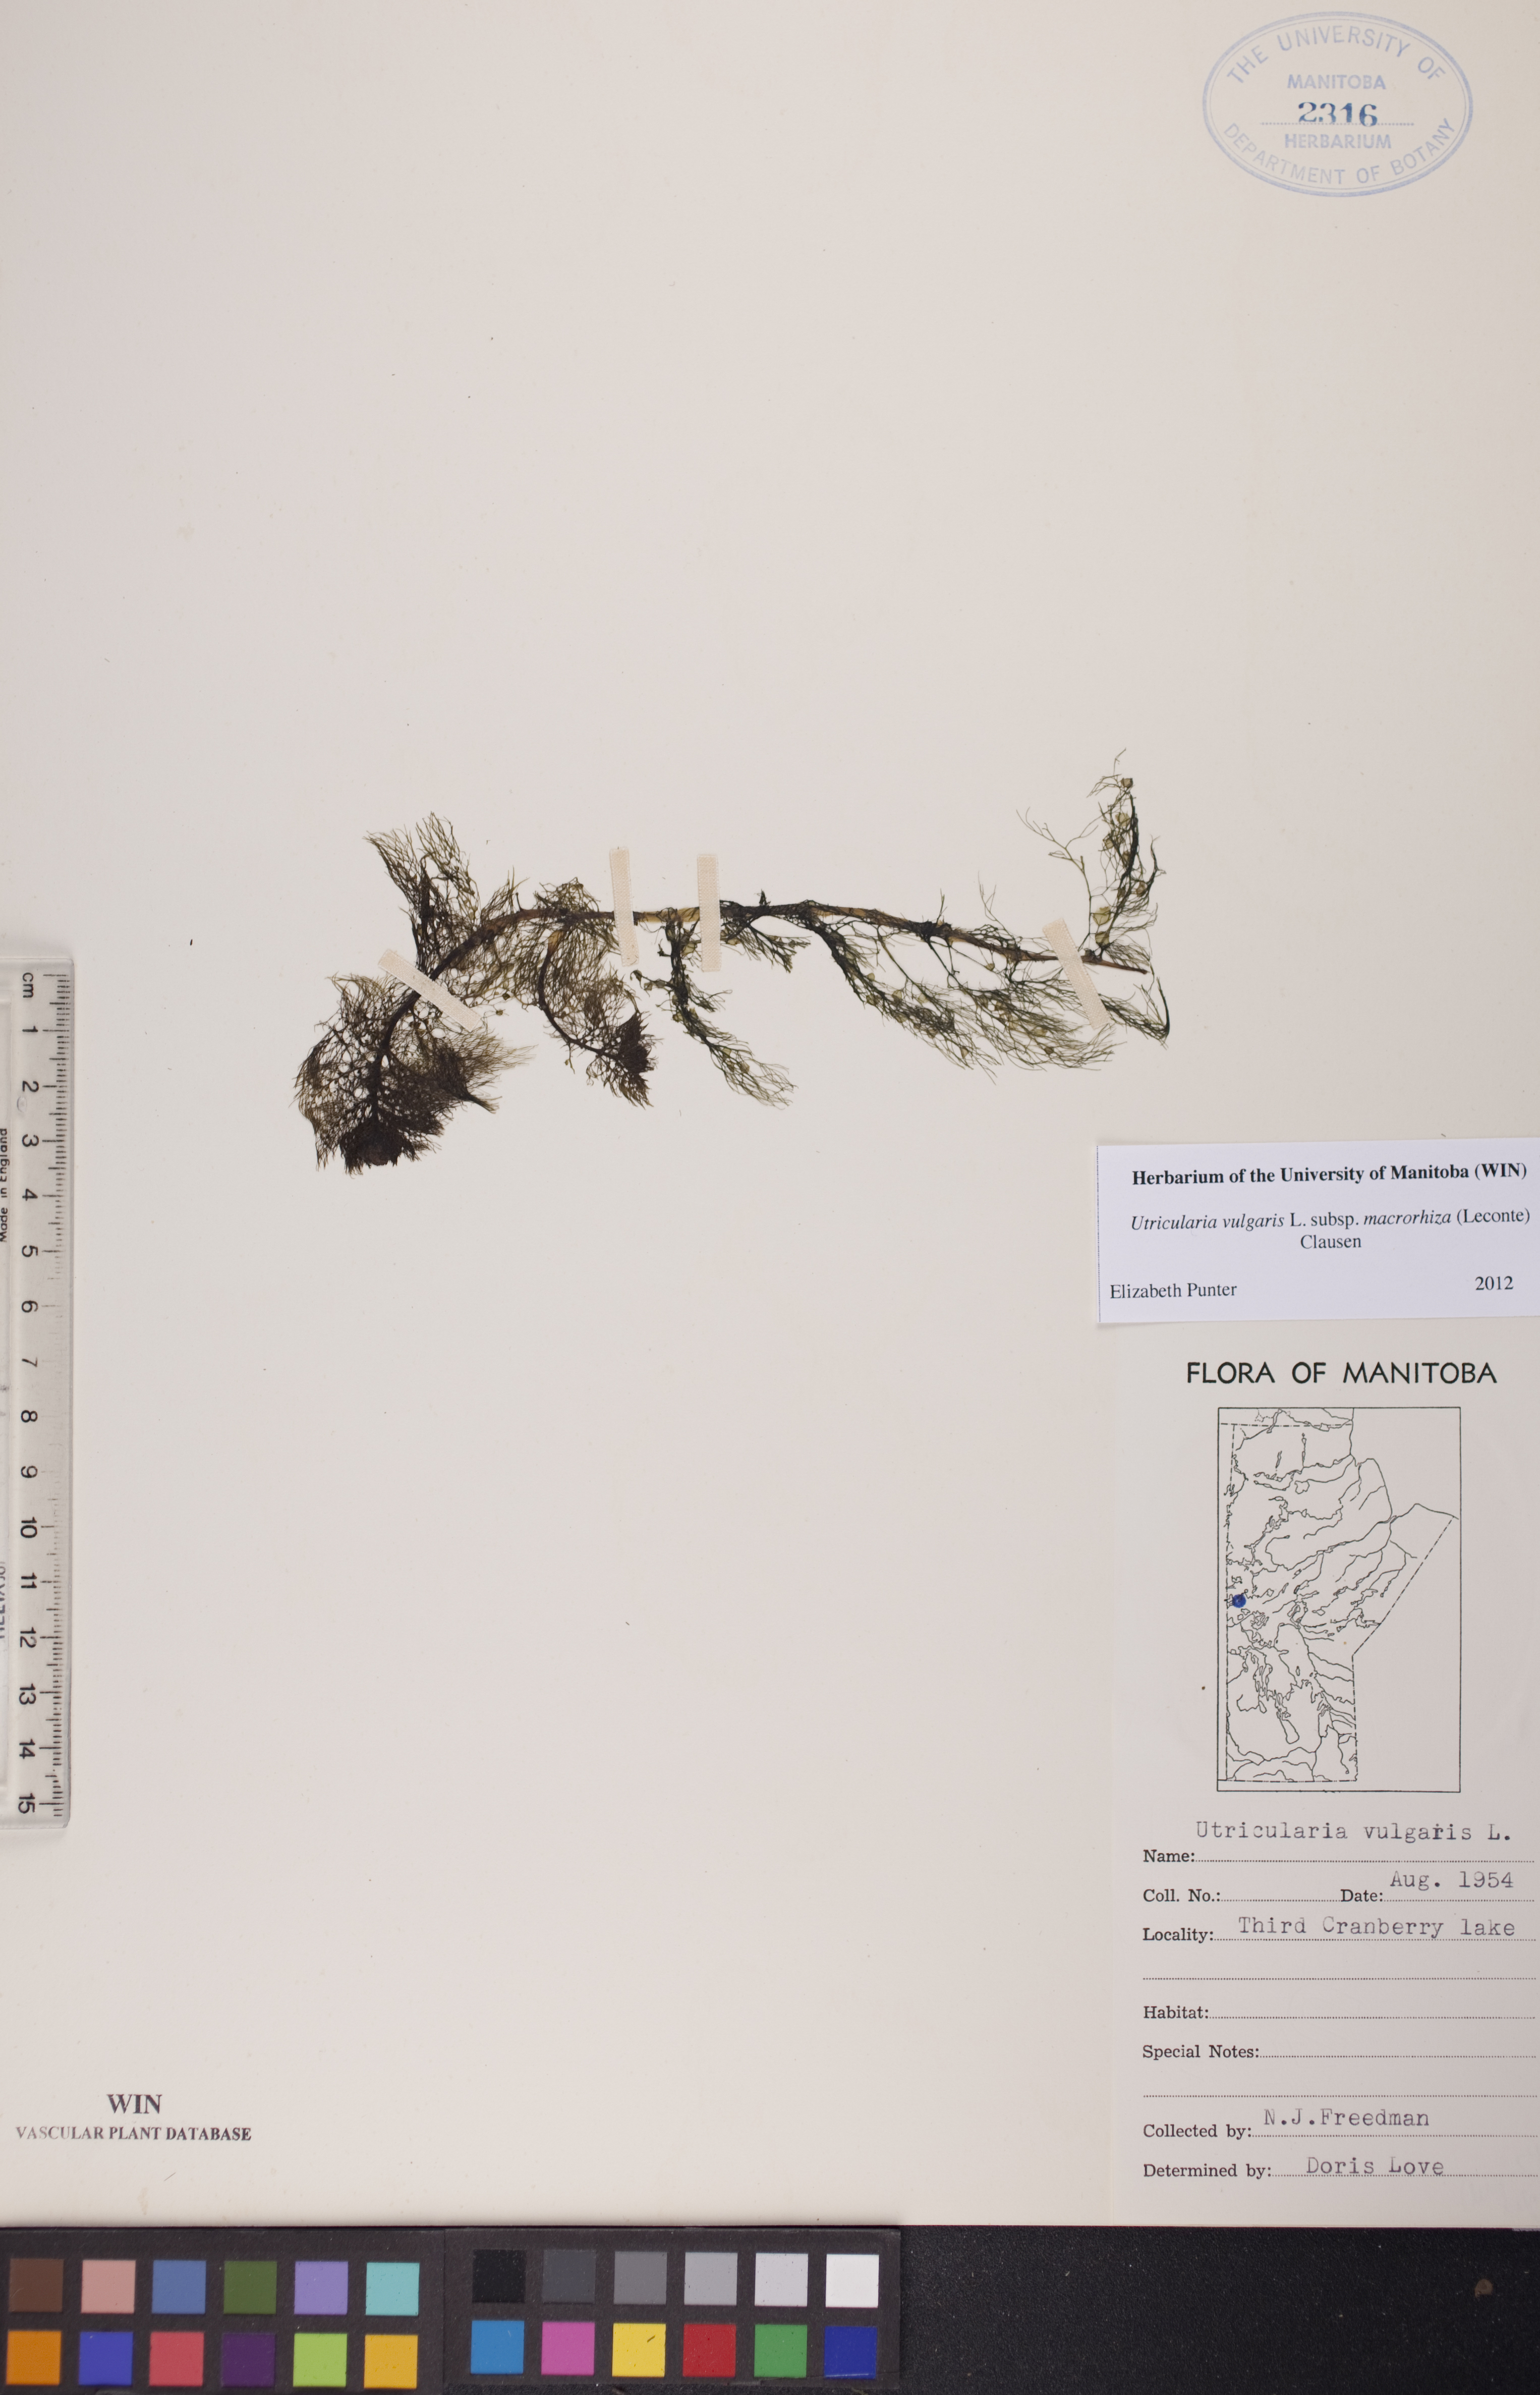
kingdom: Plantae
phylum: Tracheophyta
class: Magnoliopsida
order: Lamiales
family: Lentibulariaceae
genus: Utricularia
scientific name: Utricularia macrorhiza
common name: Common bladderwort
